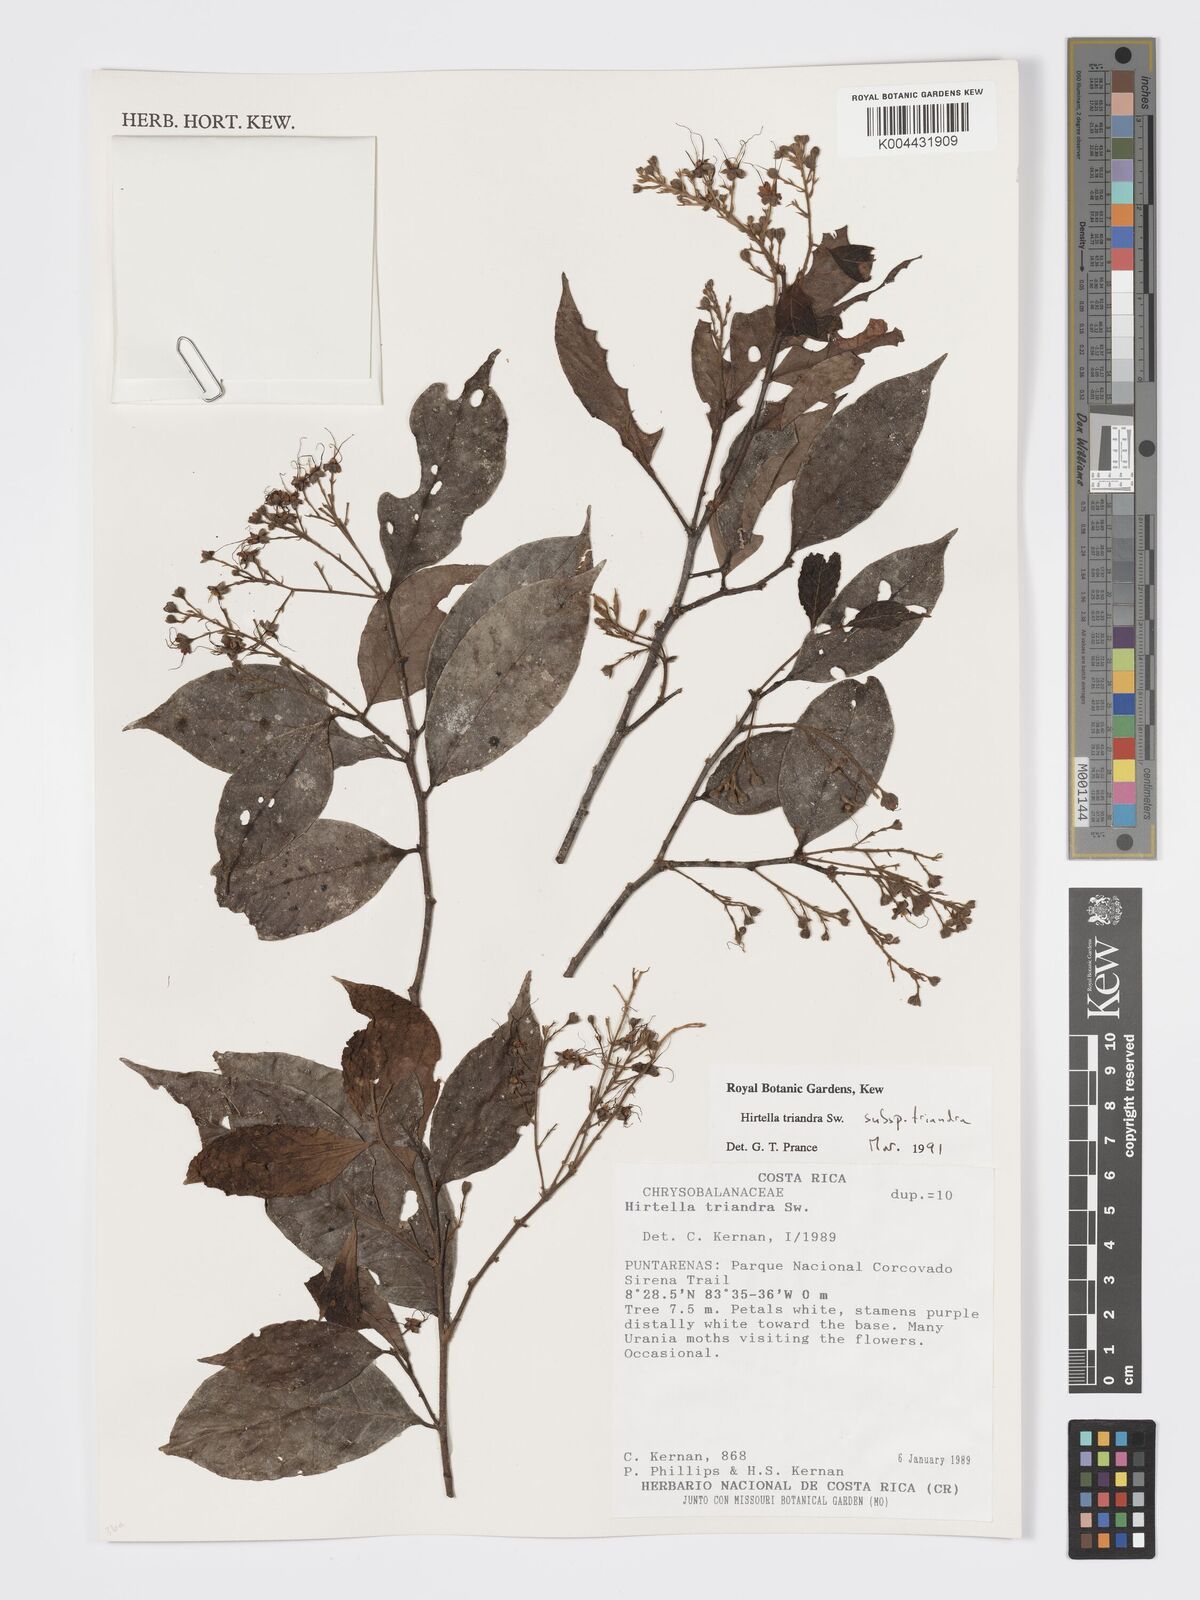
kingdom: Plantae
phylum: Tracheophyta
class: Magnoliopsida
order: Malpighiales
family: Chrysobalanaceae
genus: Hirtella
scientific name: Hirtella triandra
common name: Hairy plum
